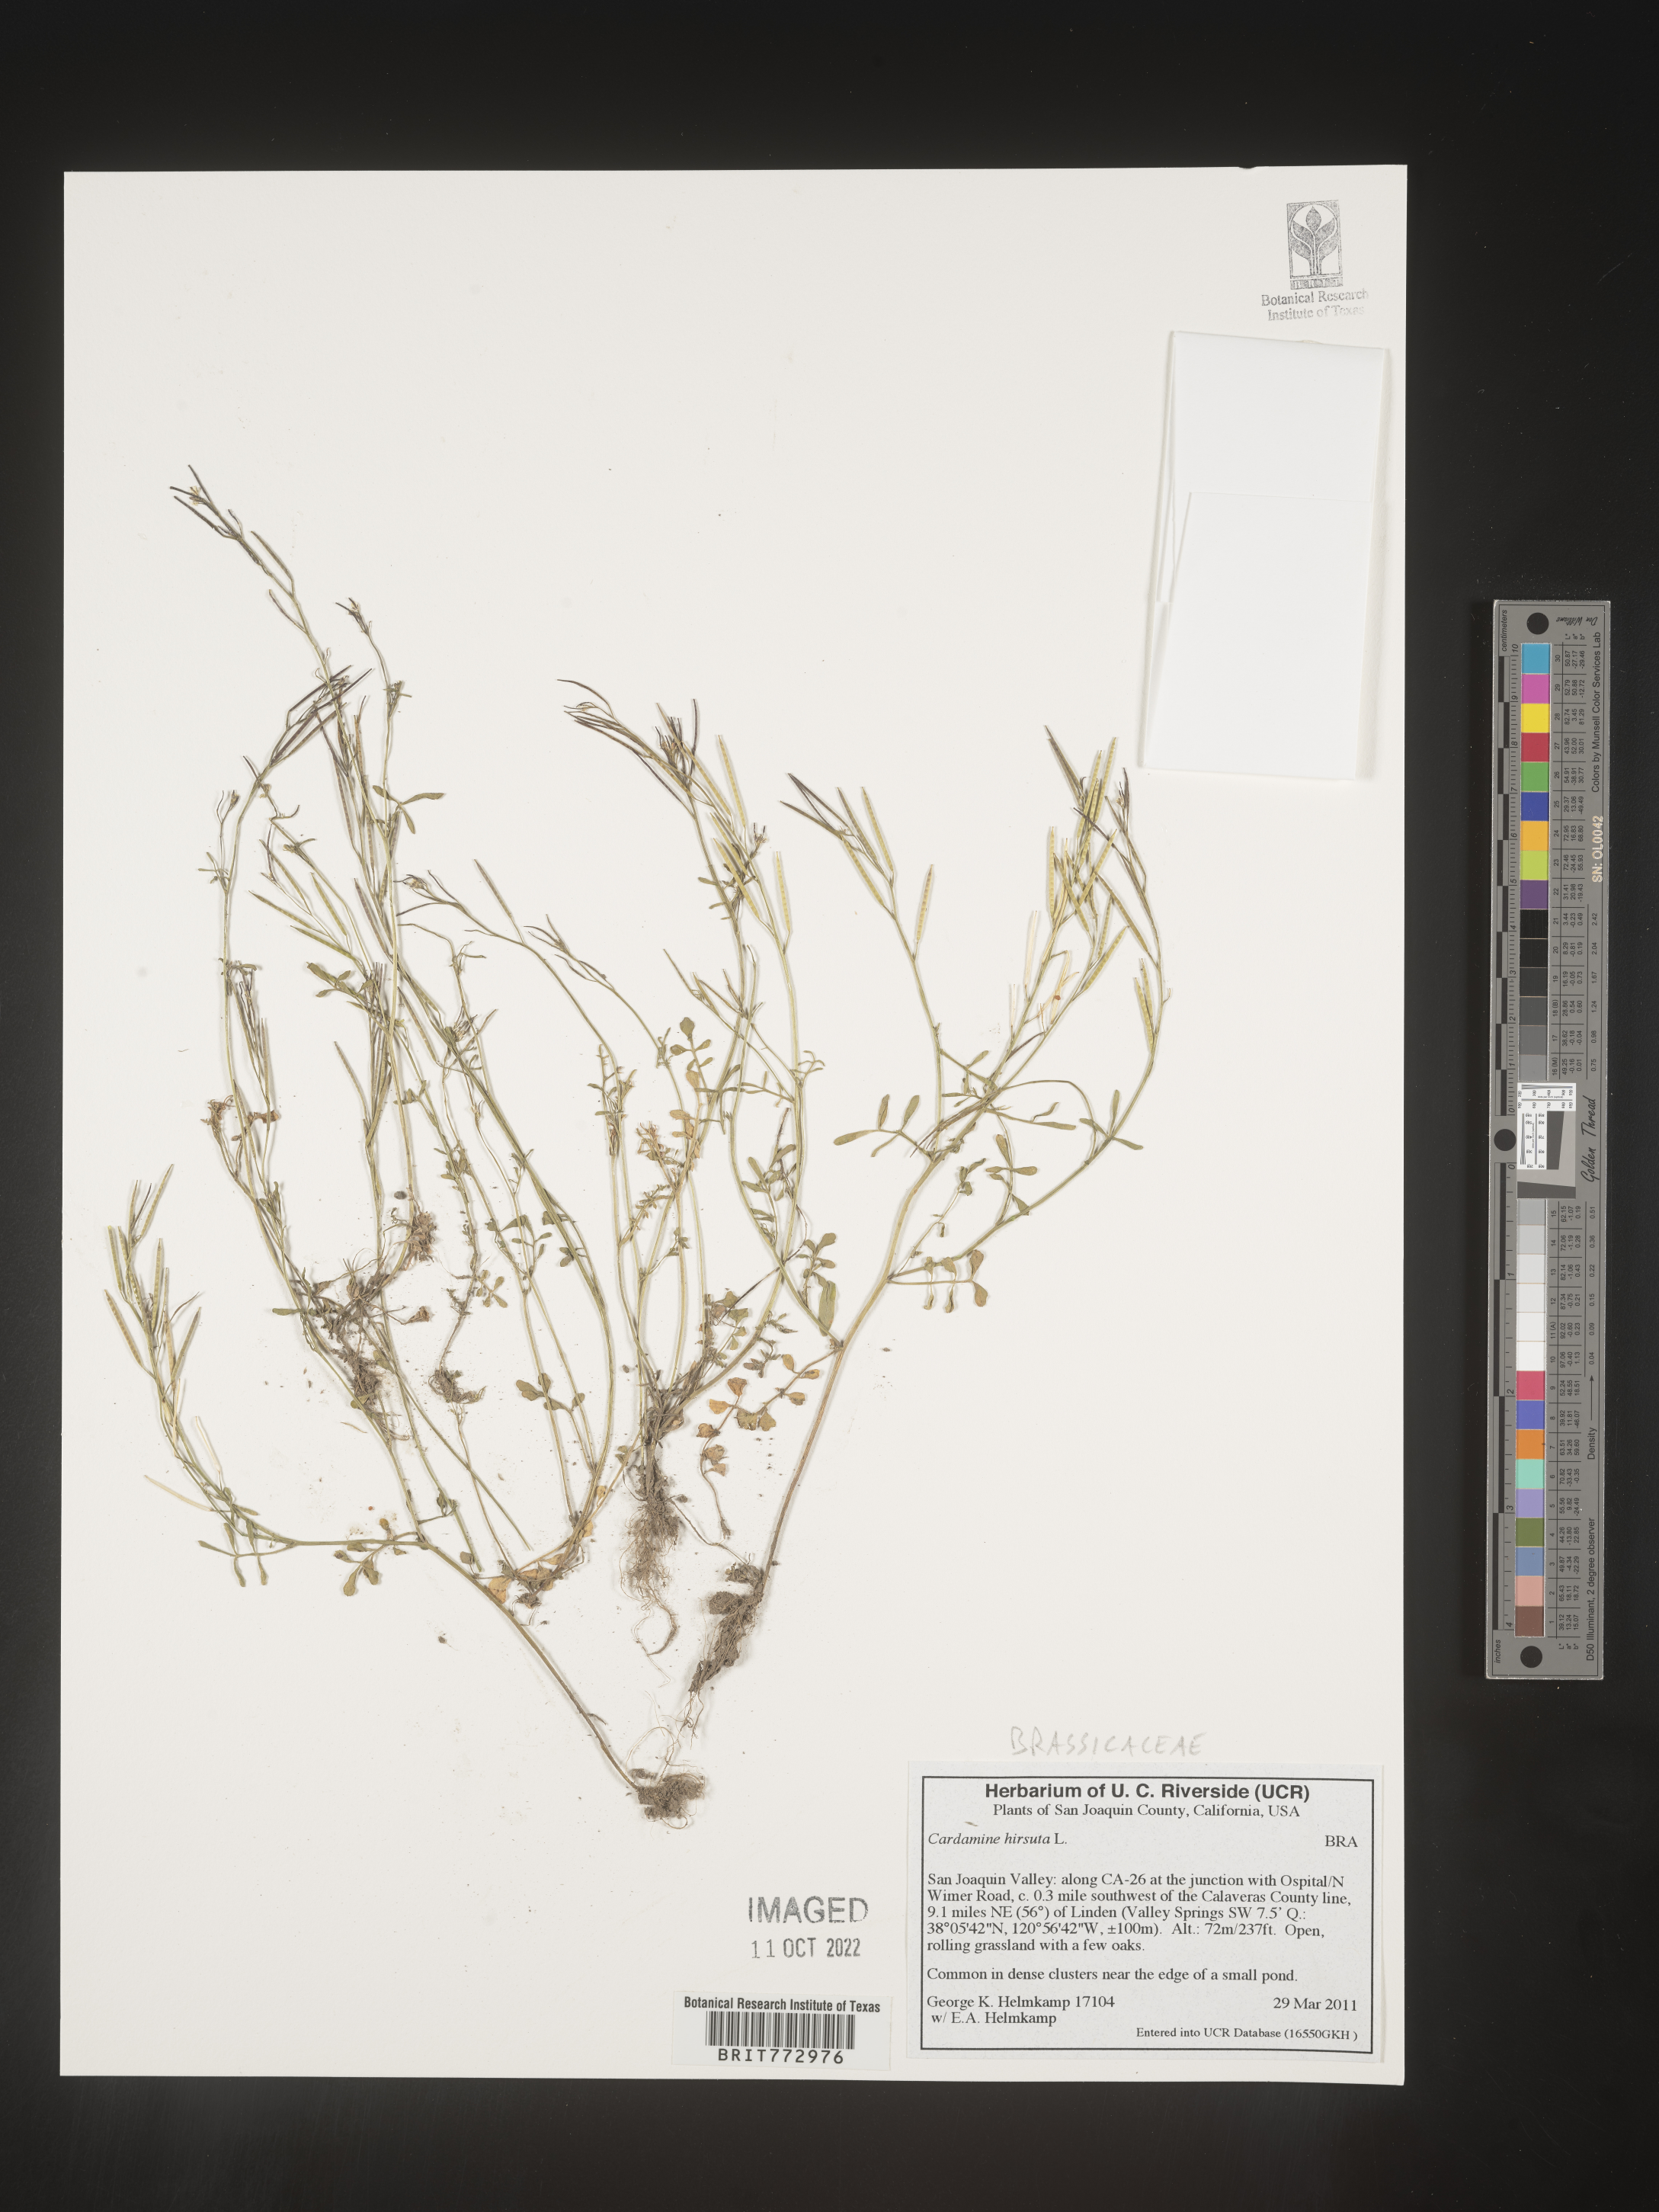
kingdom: Plantae
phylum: Tracheophyta
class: Magnoliopsida
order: Brassicales
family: Brassicaceae
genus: Cardamine
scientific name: Cardamine hirsuta
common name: Hairy bittercress
